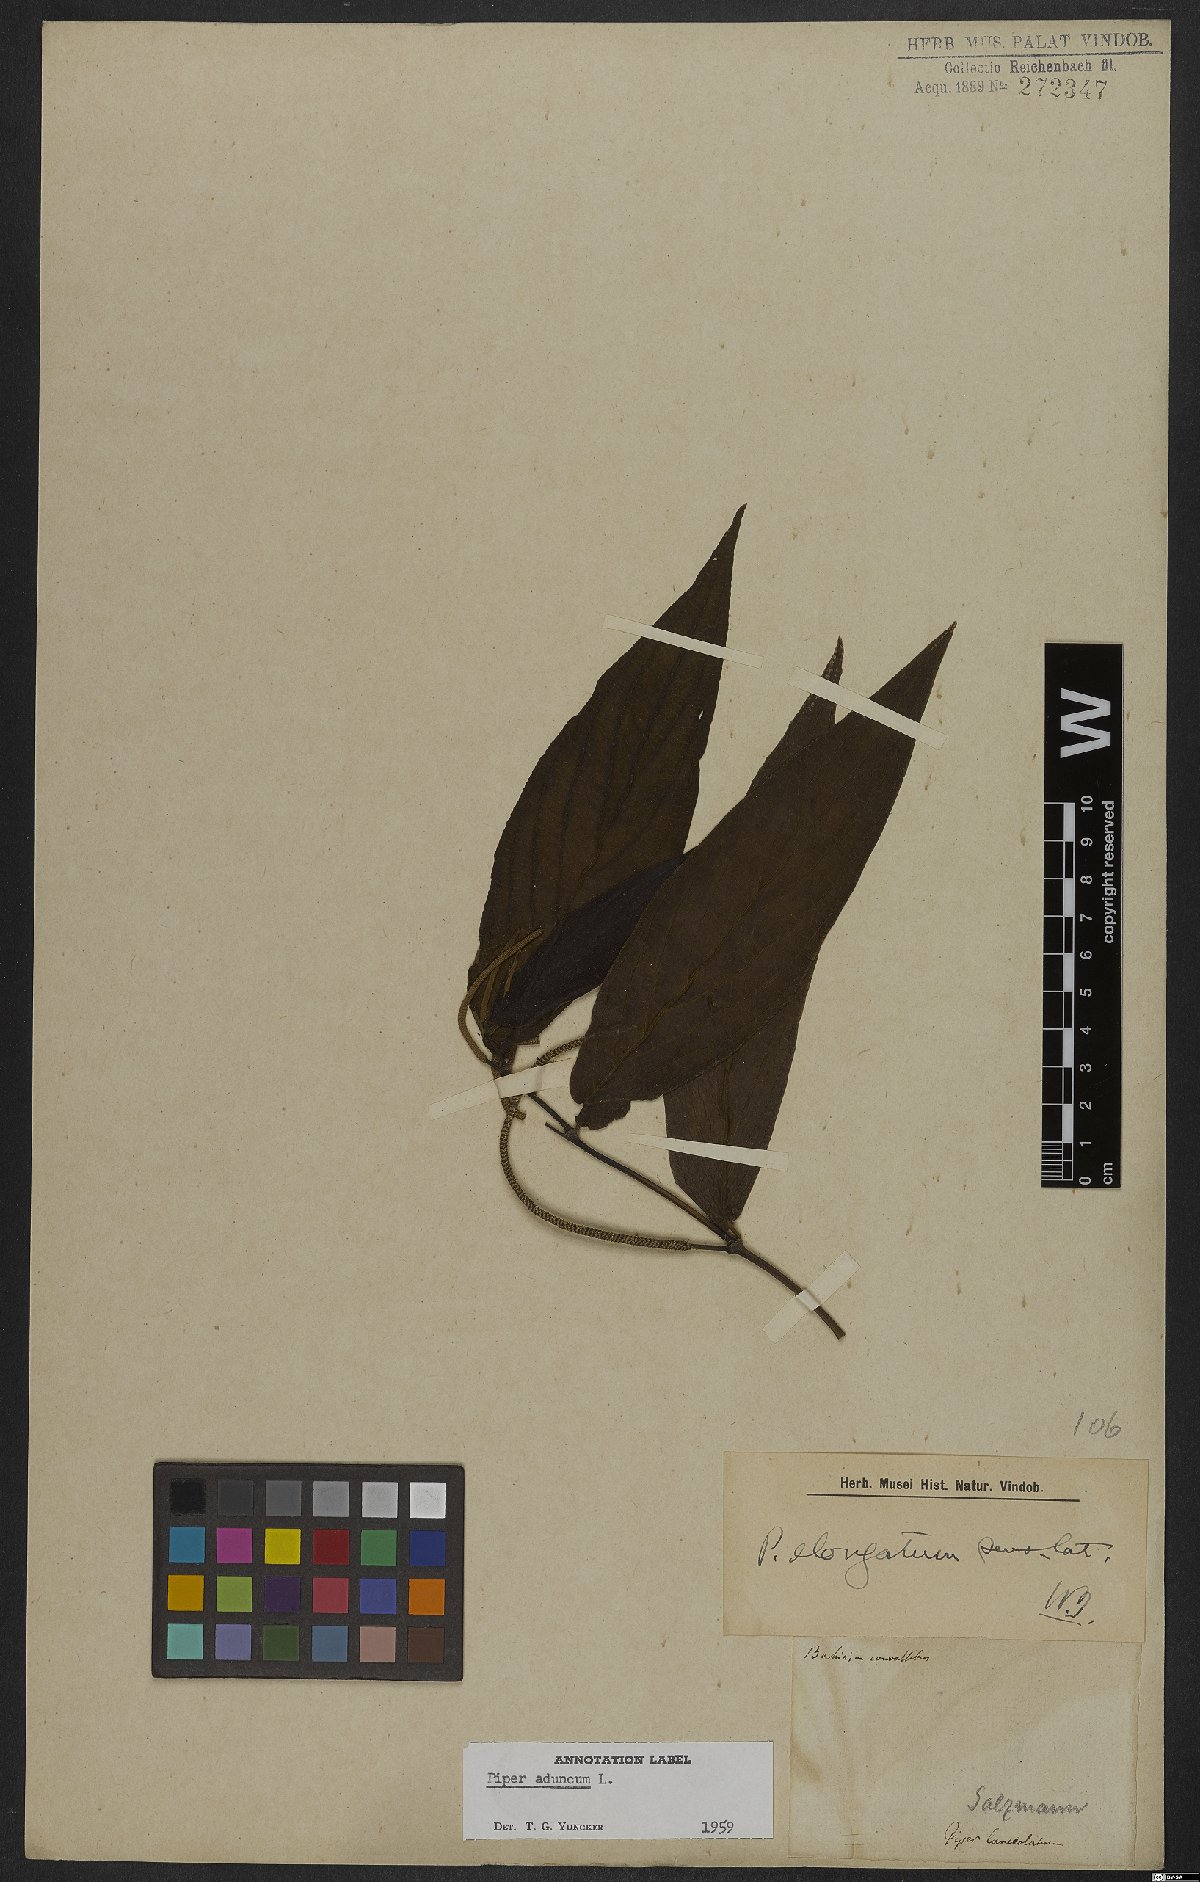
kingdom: Plantae
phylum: Tracheophyta
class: Magnoliopsida
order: Piperales
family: Piperaceae
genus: Piper
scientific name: Piper aduncum
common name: Spiked pepper
